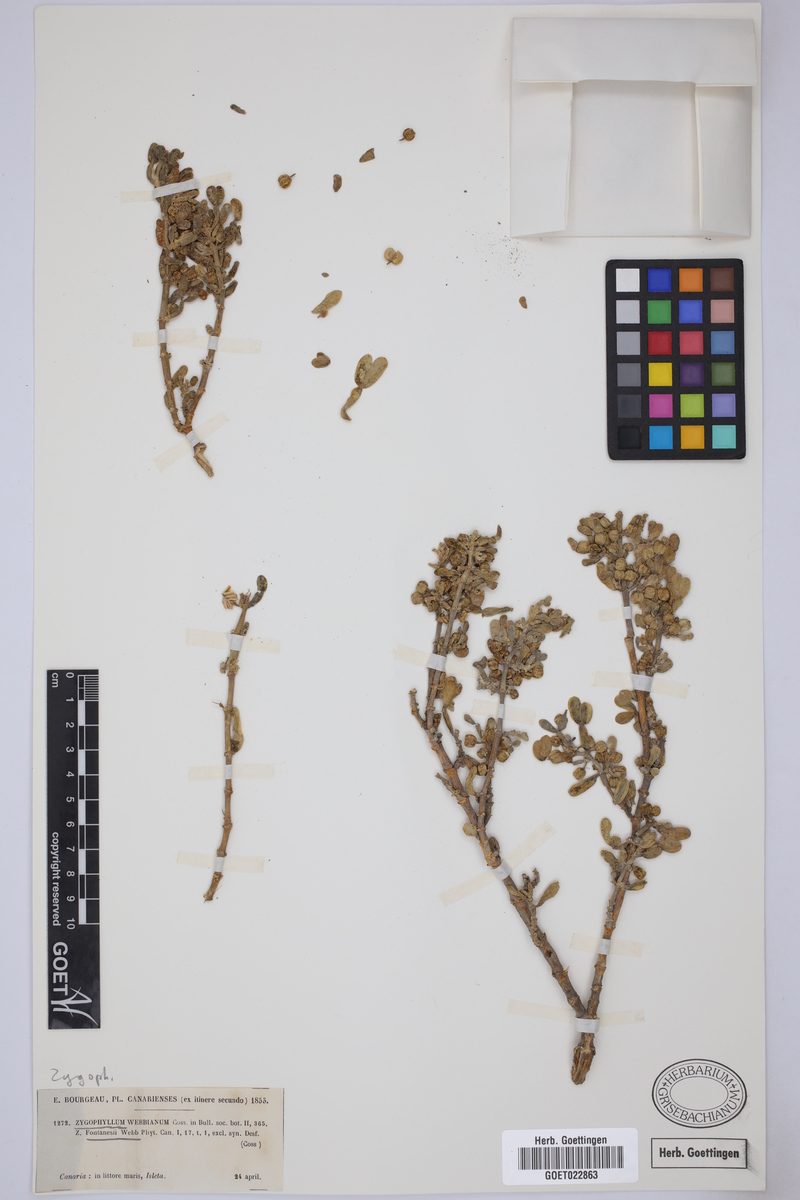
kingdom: Plantae
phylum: Tracheophyta
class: Magnoliopsida
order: Zygophyllales
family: Zygophyllaceae
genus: Tetraena
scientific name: Tetraena fontanesii
